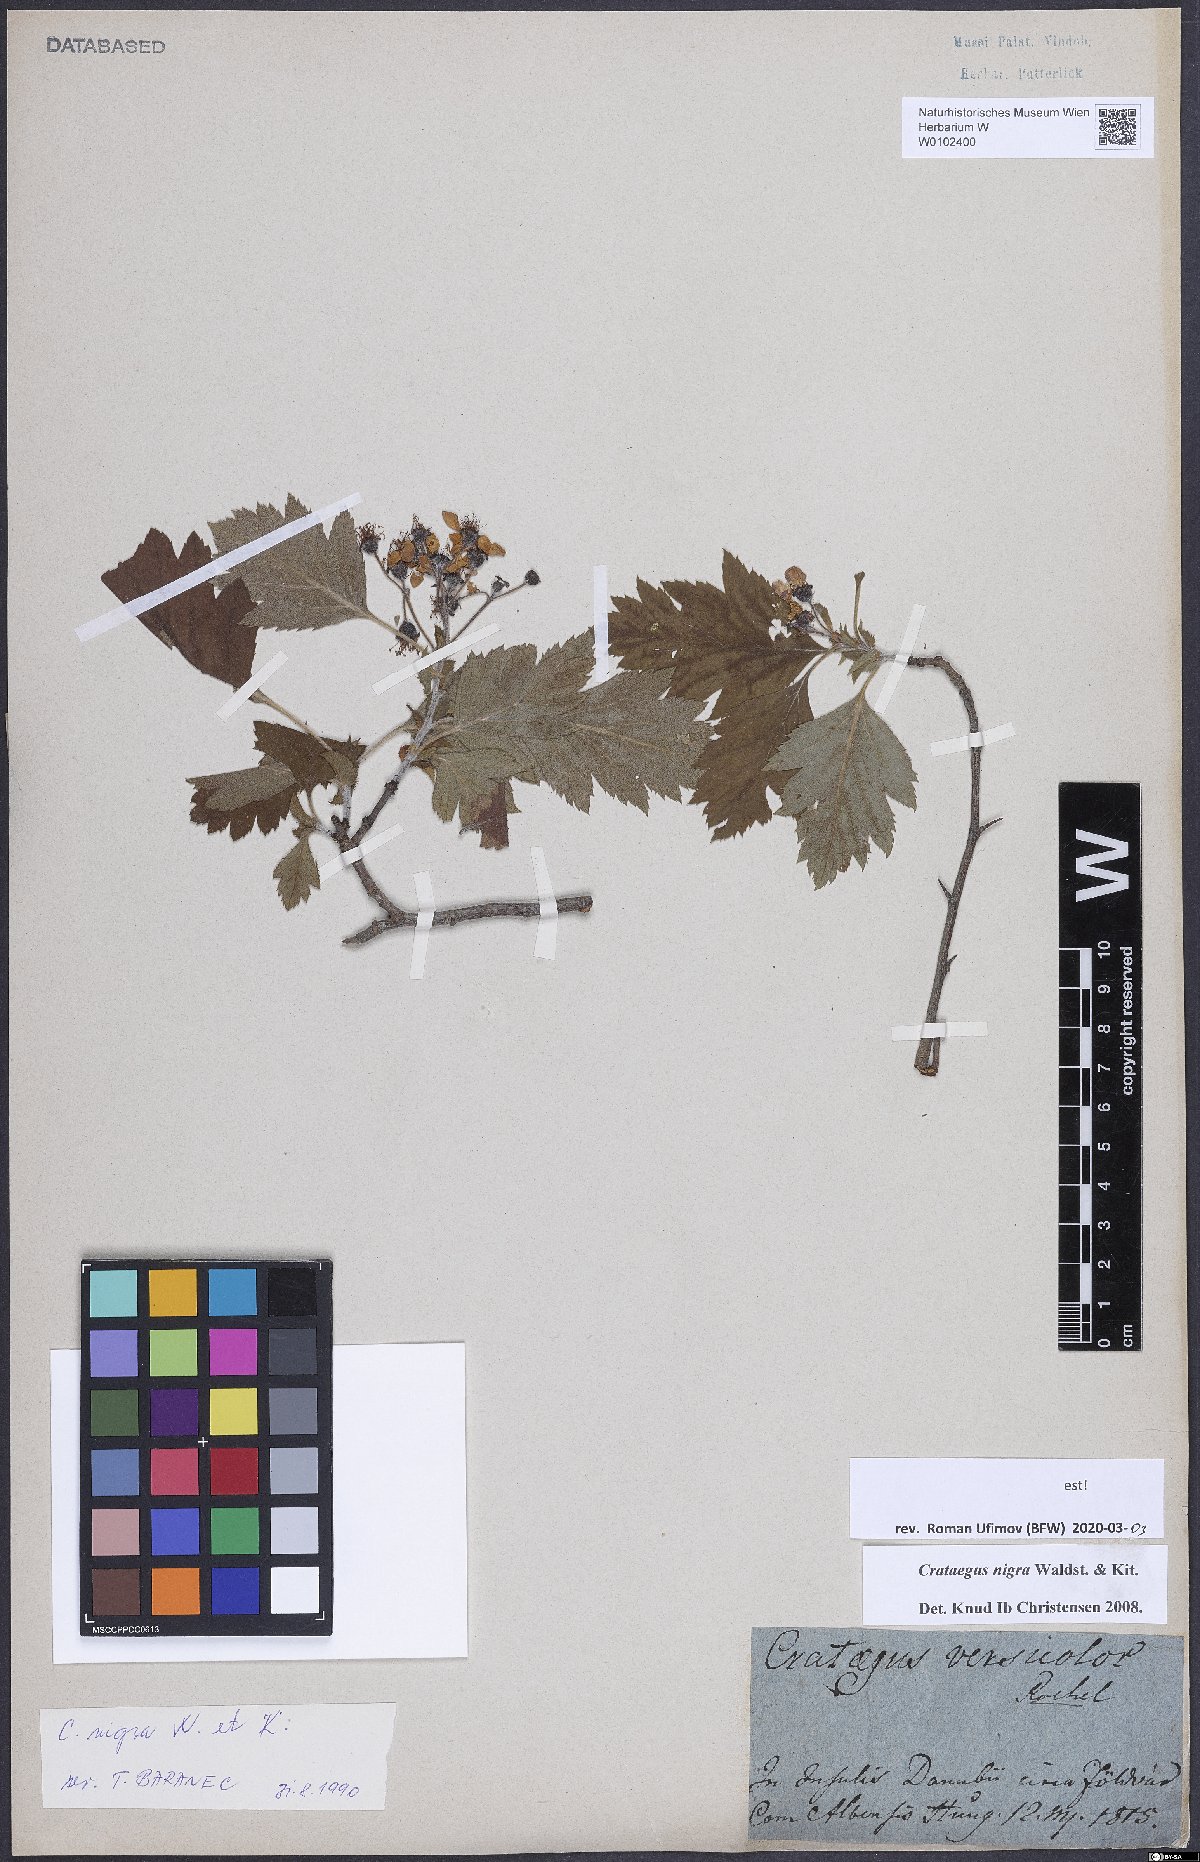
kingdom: Plantae
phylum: Tracheophyta
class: Magnoliopsida
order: Rosales
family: Rosaceae
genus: Crataegus
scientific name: Crataegus nigra
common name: Hungarian thorn
